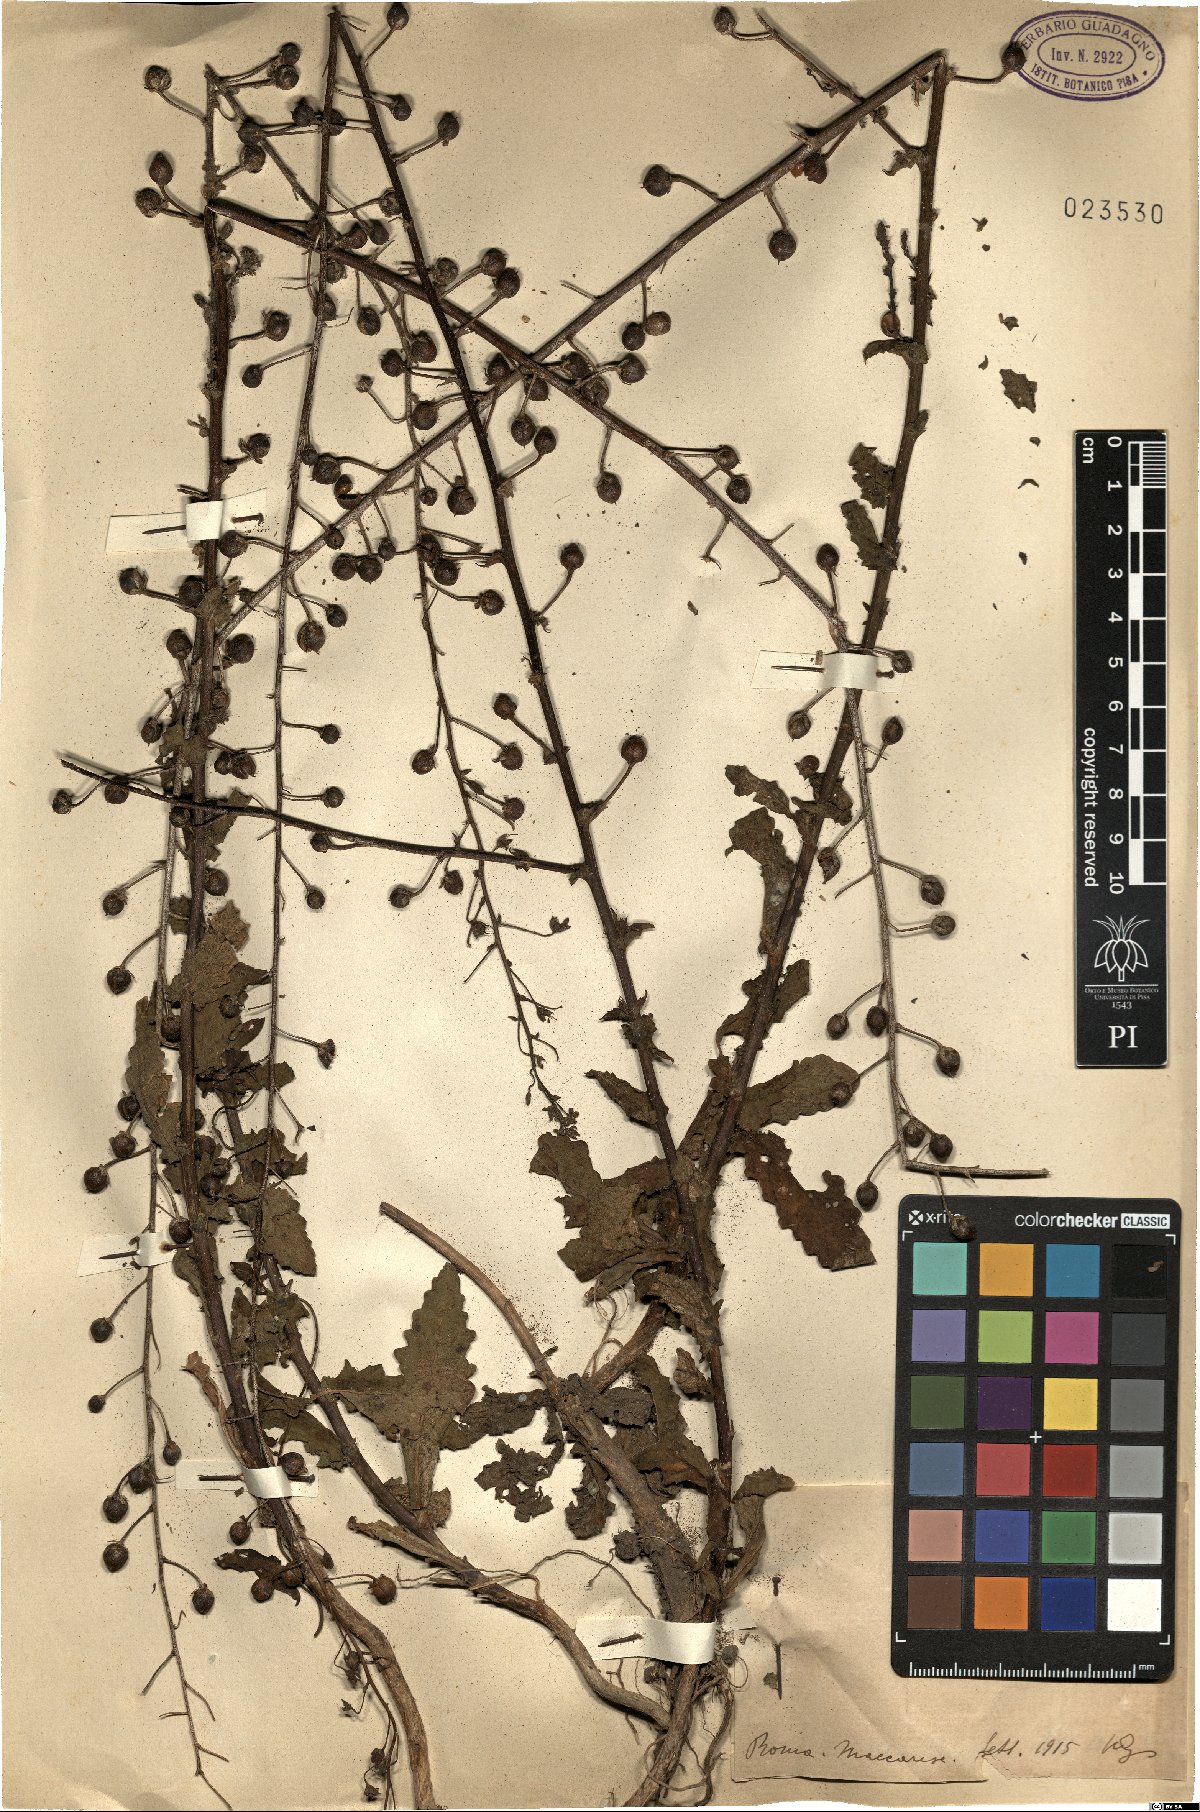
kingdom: Plantae
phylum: Tracheophyta
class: Magnoliopsida
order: Lamiales
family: Scrophulariaceae
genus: Verbascum
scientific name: Verbascum
